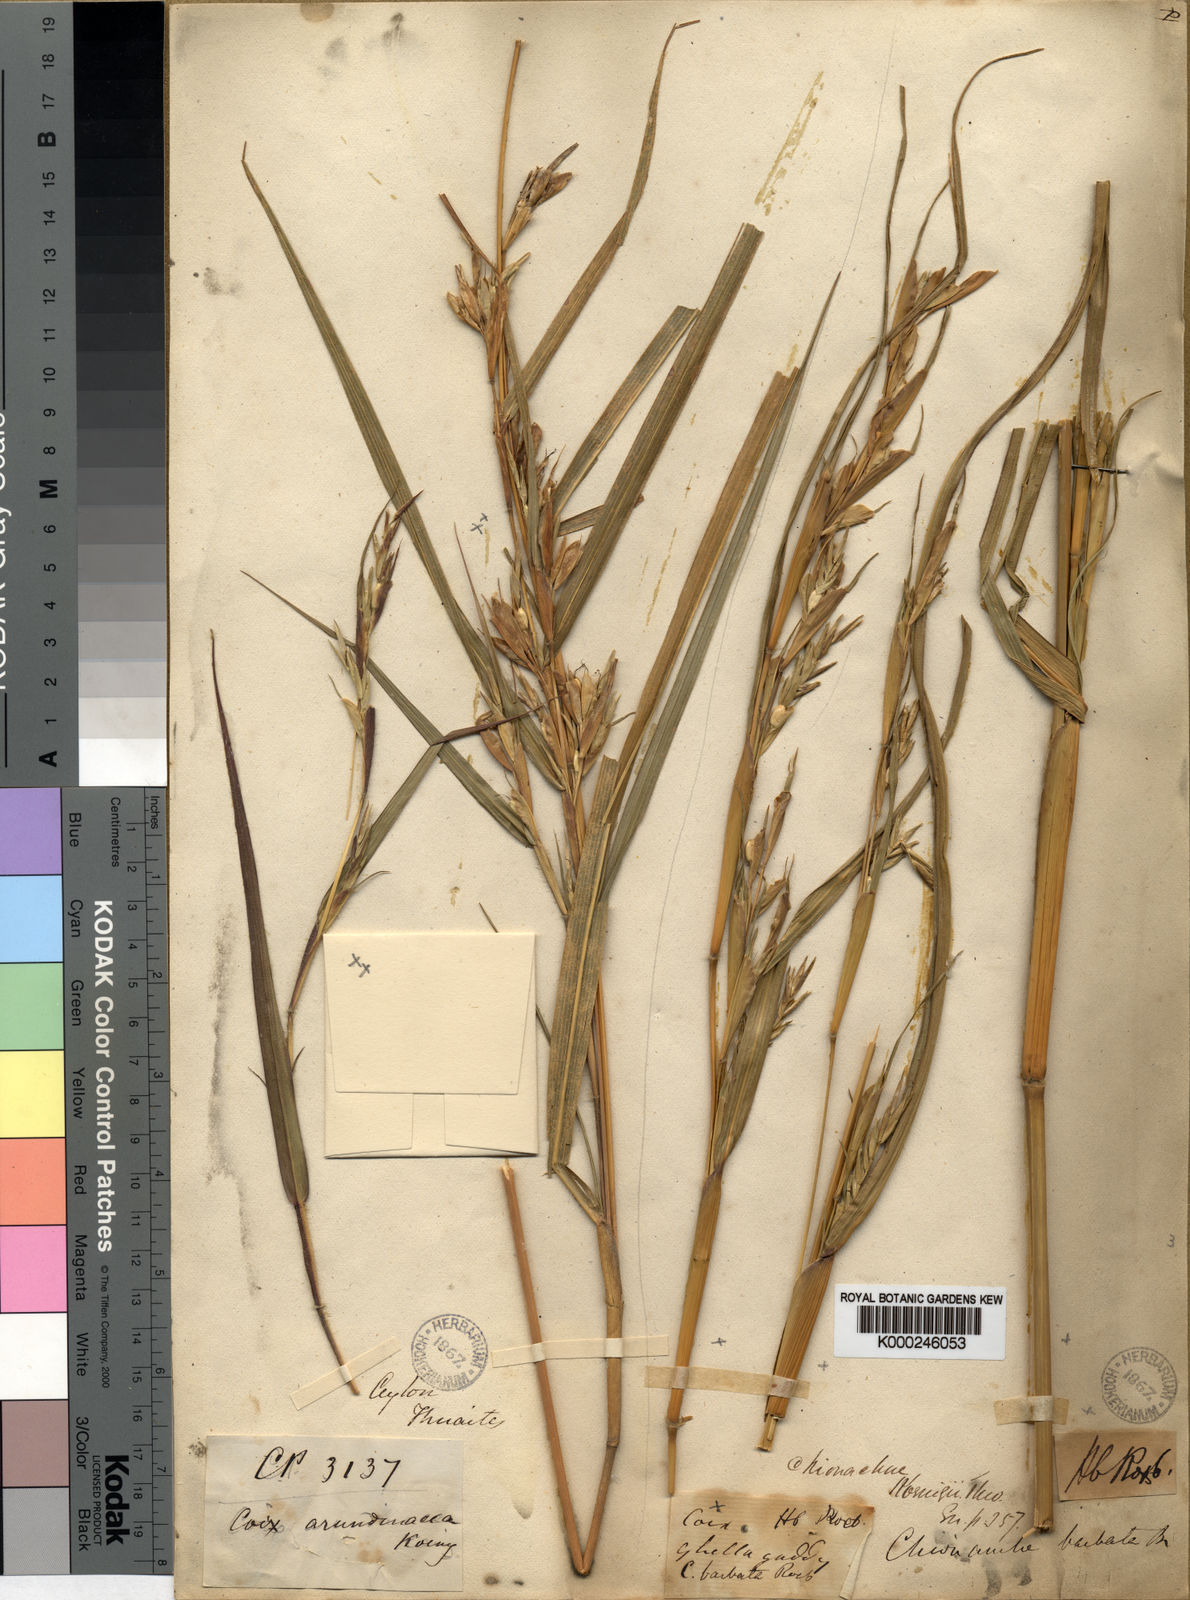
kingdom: Plantae
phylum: Tracheophyta
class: Liliopsida
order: Poales
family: Poaceae
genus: Polytoca
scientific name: Polytoca gigantea
